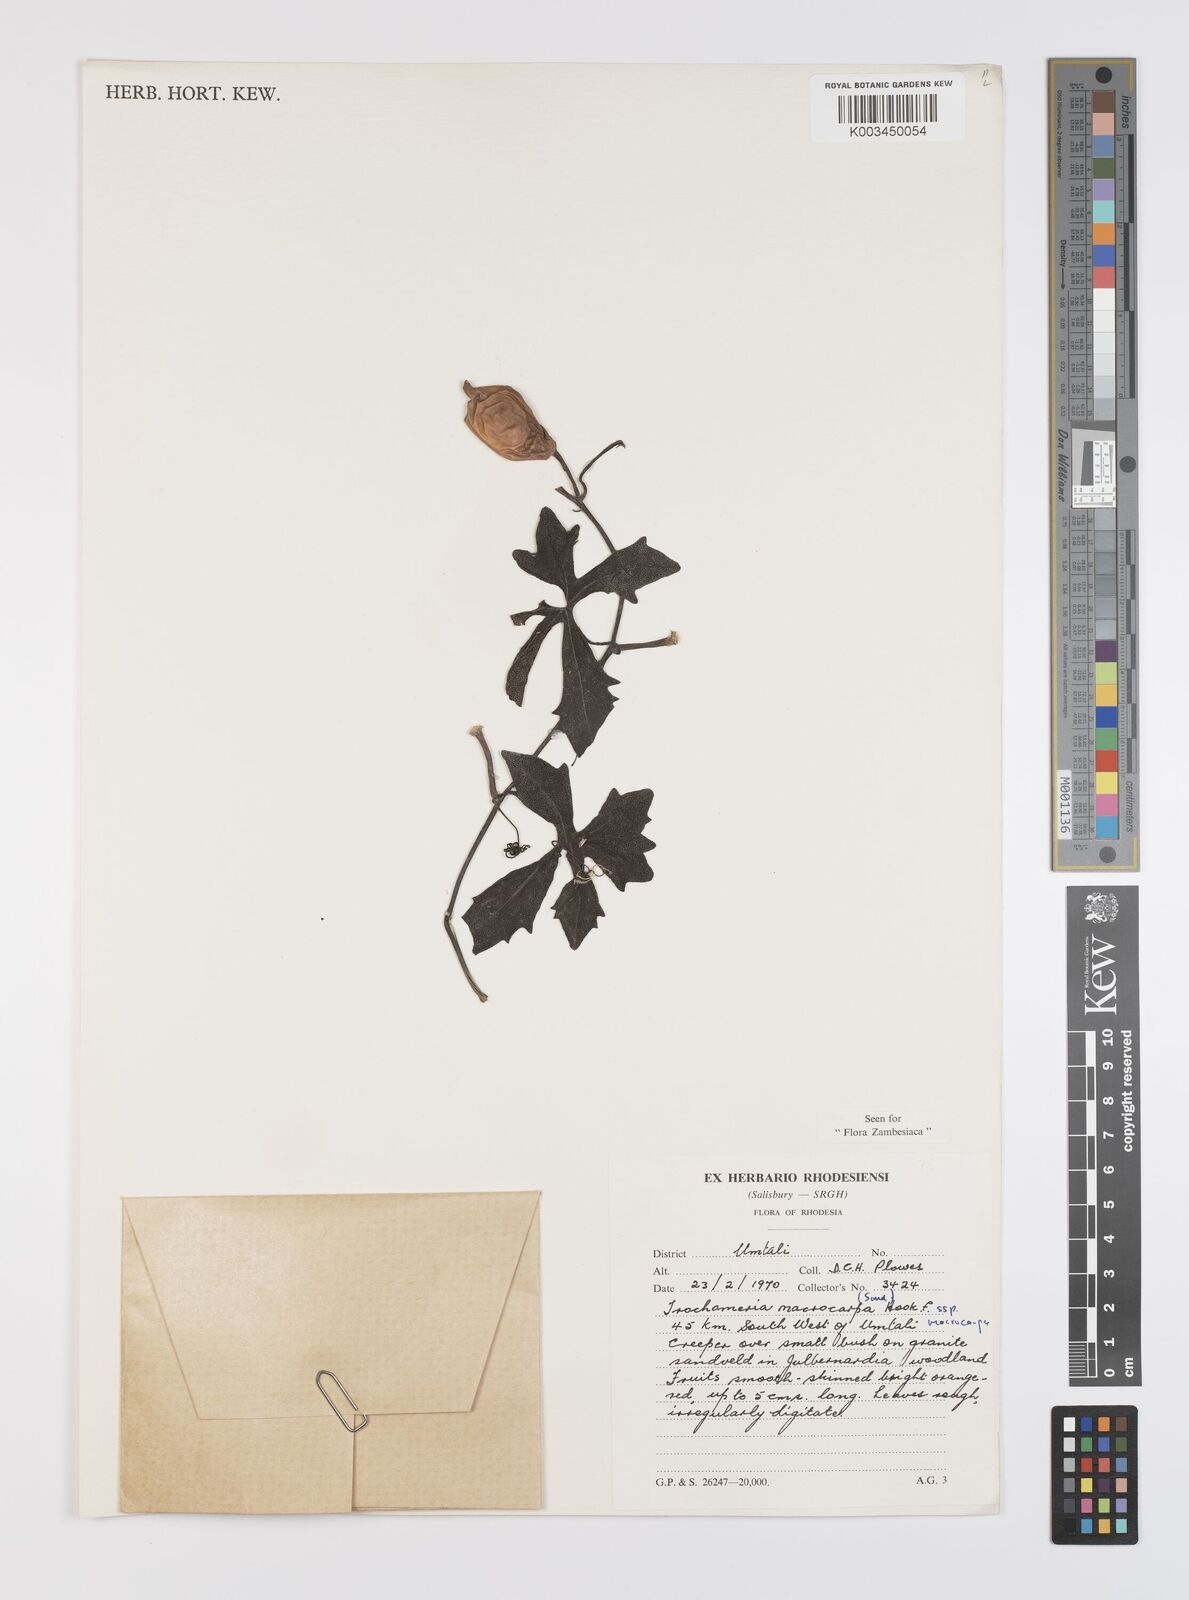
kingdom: Plantae
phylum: Tracheophyta
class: Magnoliopsida
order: Cucurbitales
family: Cucurbitaceae
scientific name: Cucurbitaceae
